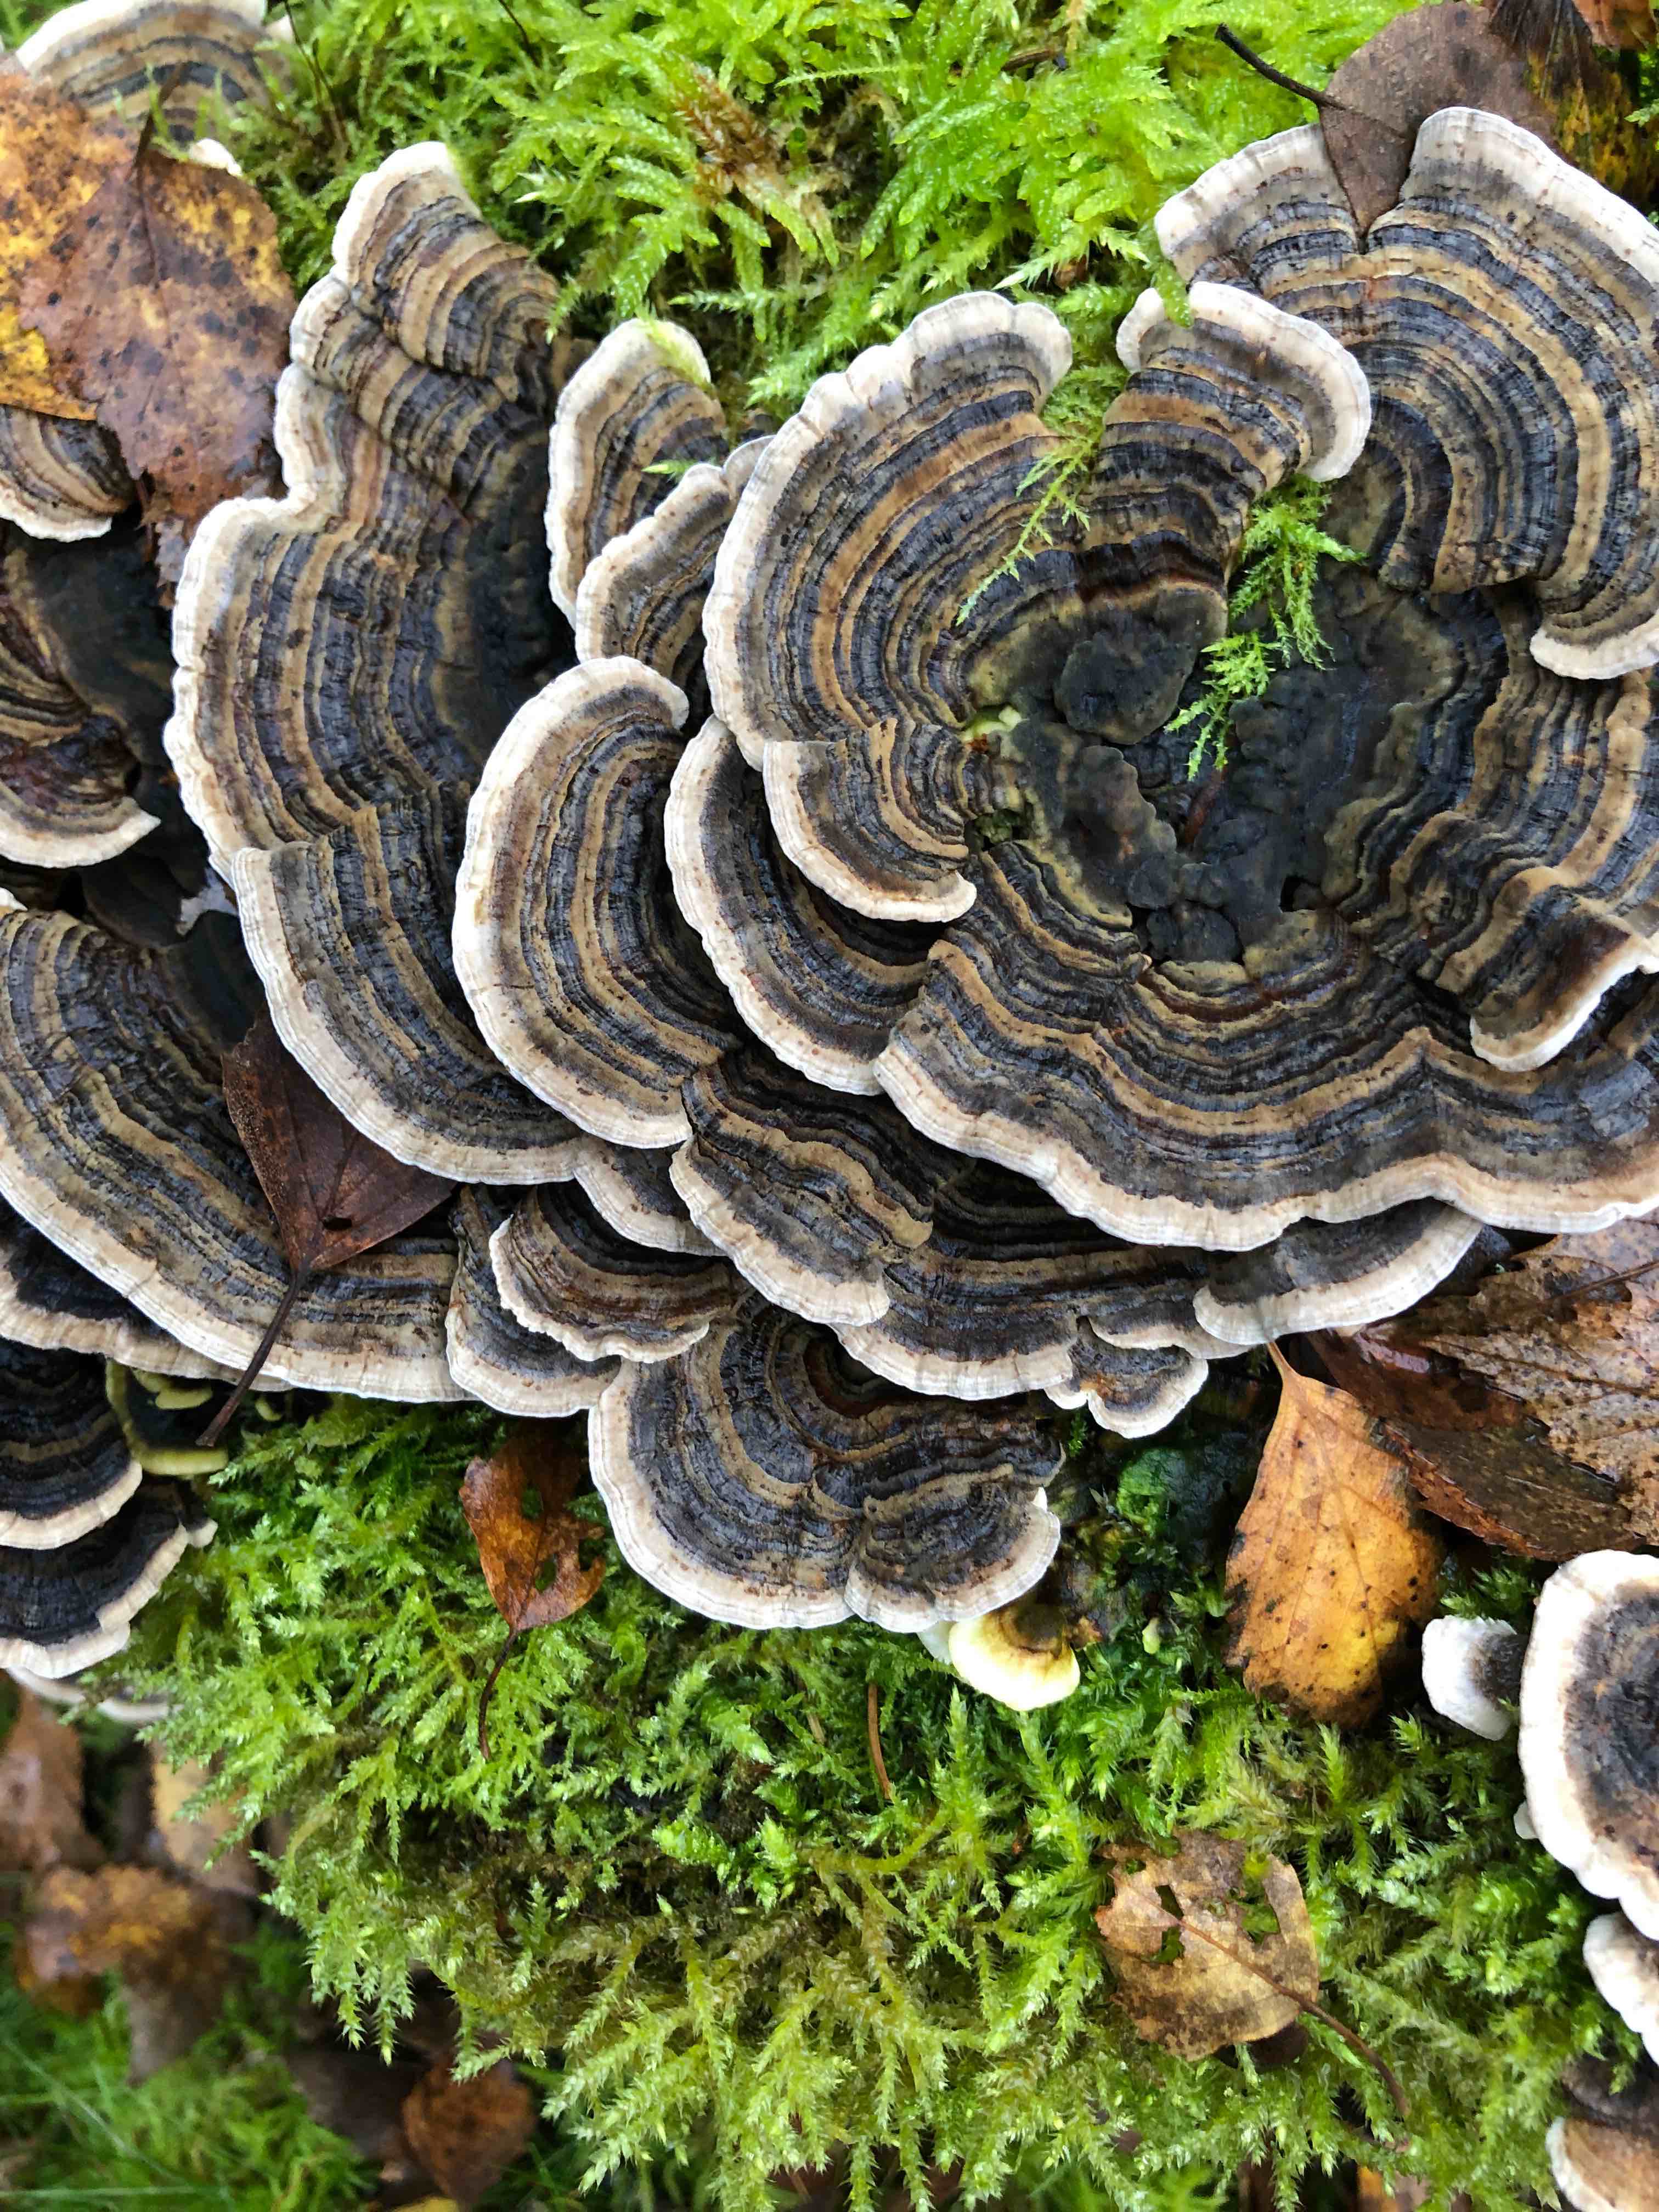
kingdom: Fungi
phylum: Basidiomycota
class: Agaricomycetes
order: Polyporales
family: Polyporaceae
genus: Trametes
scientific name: Trametes versicolor
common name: broget læderporesvamp
